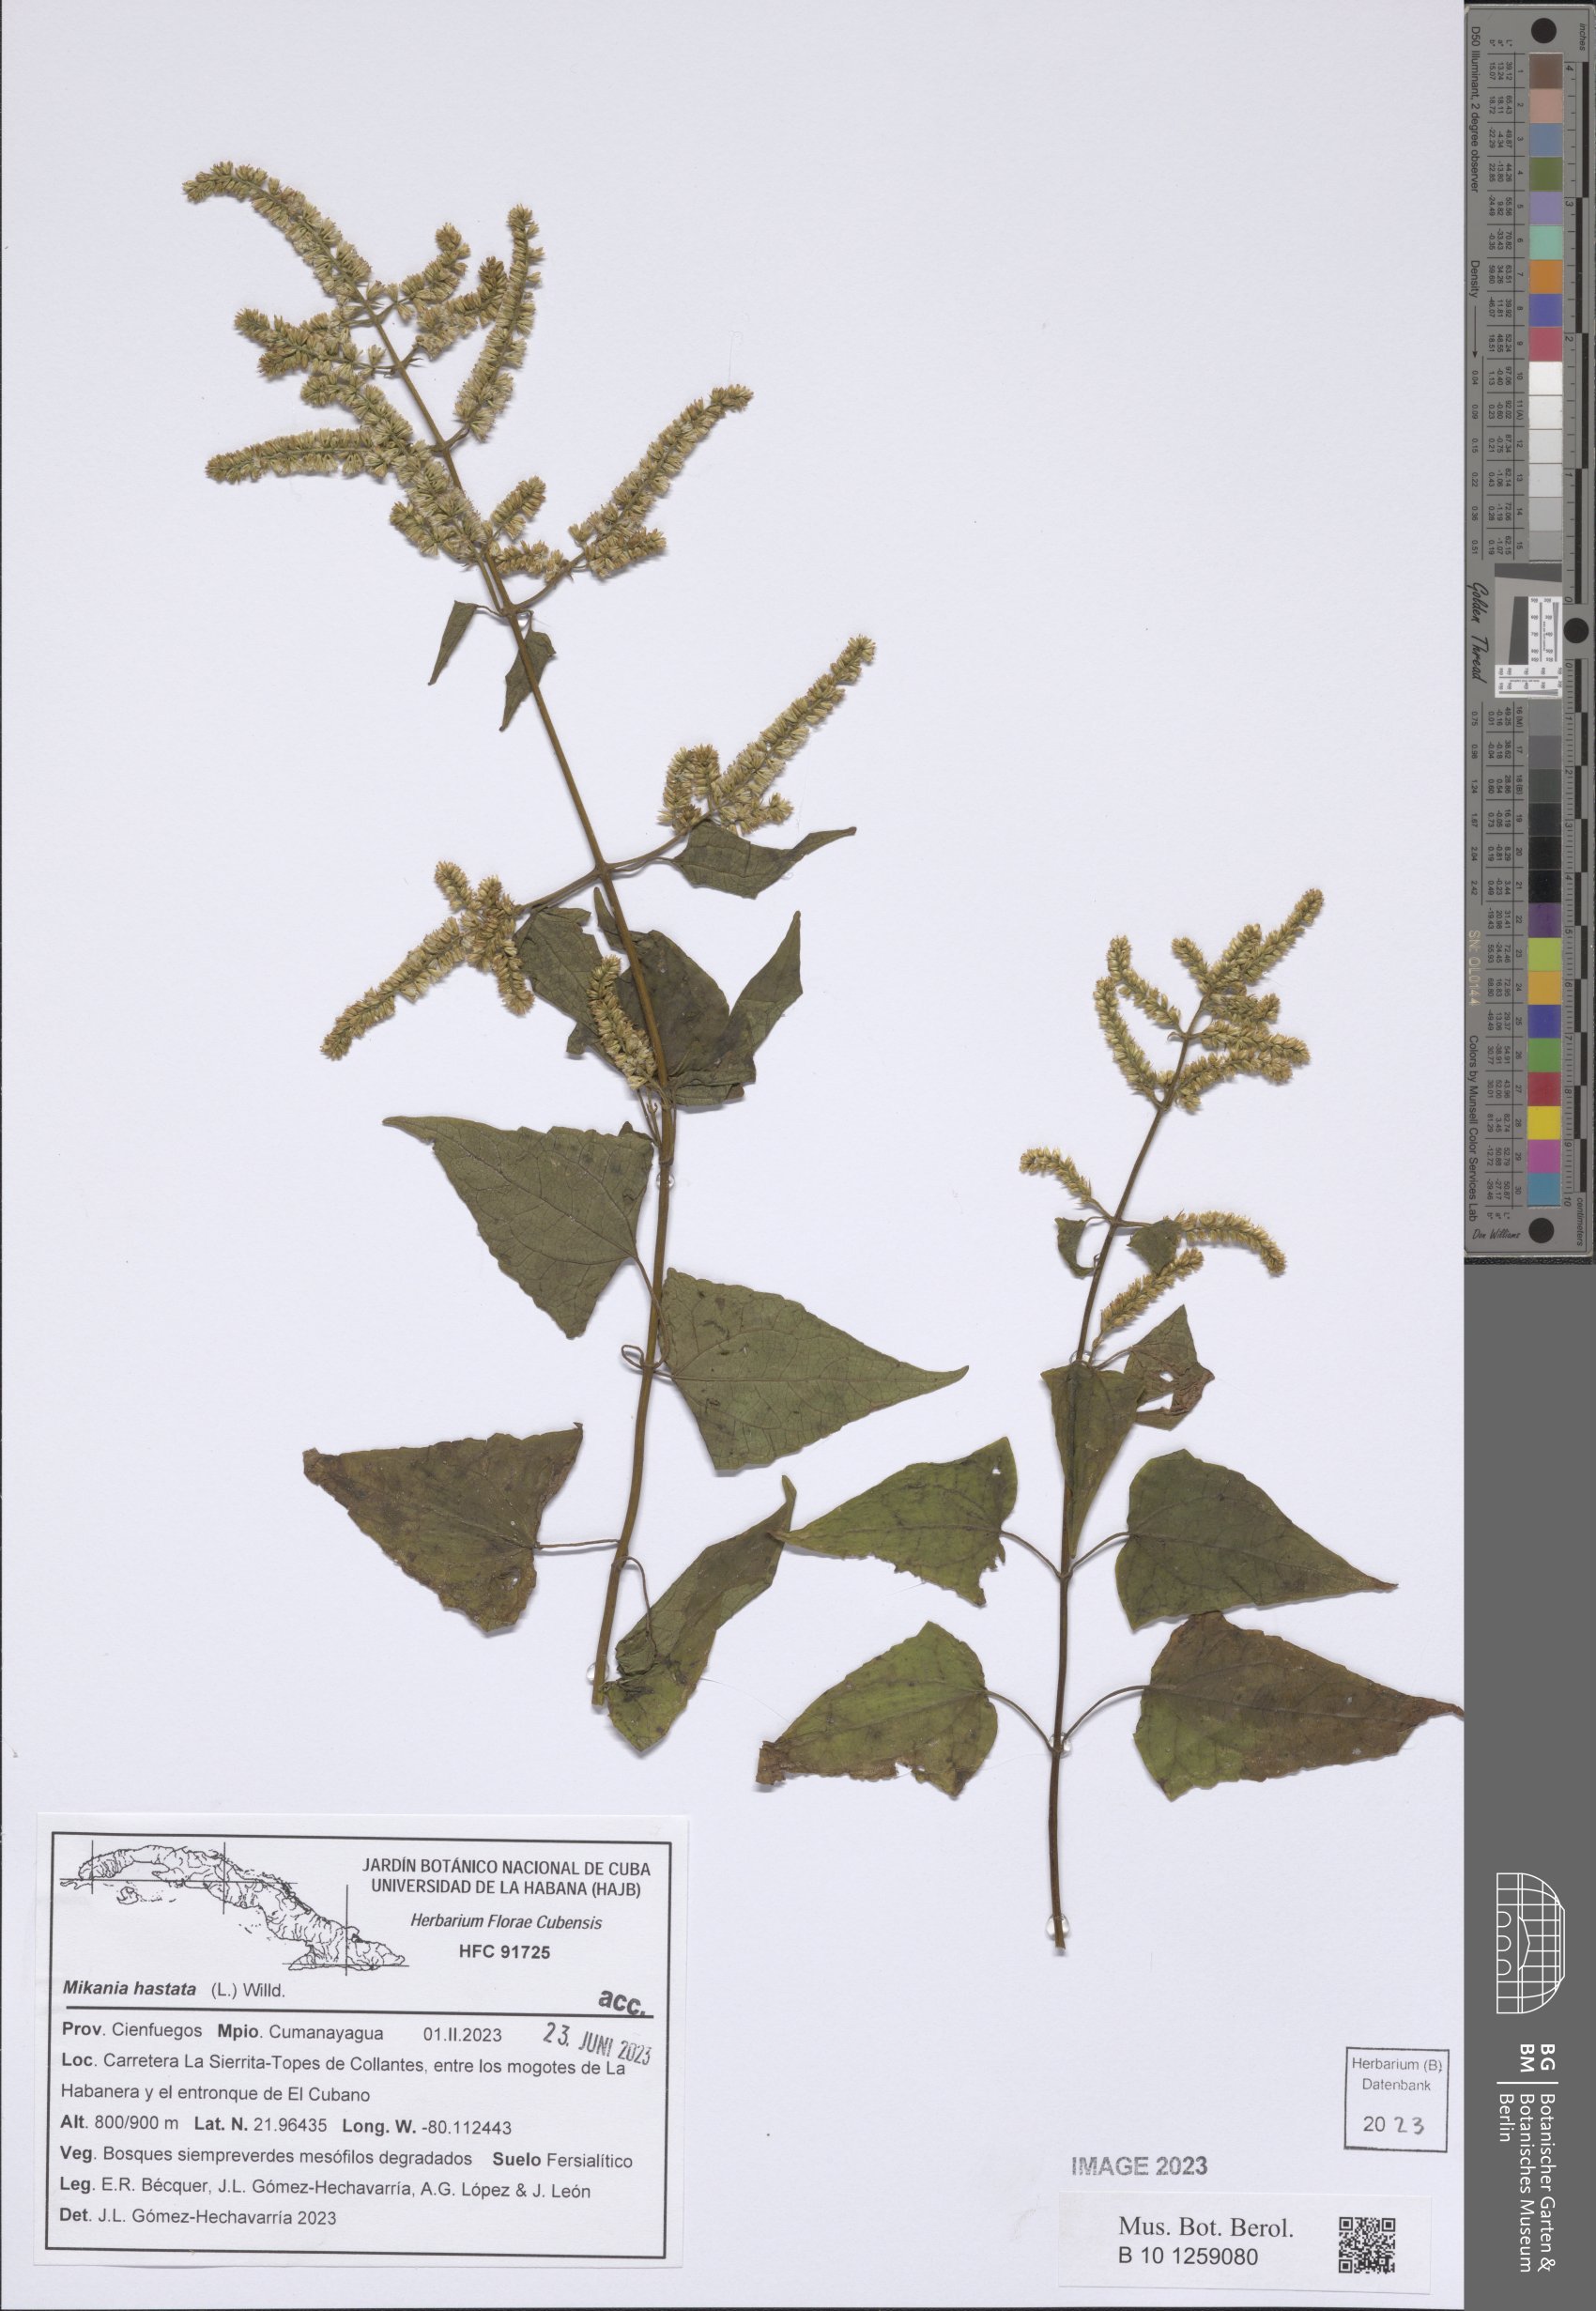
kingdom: Plantae
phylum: Tracheophyta
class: Magnoliopsida
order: Asterales
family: Asteraceae
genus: Mikania
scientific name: Mikania hastata
